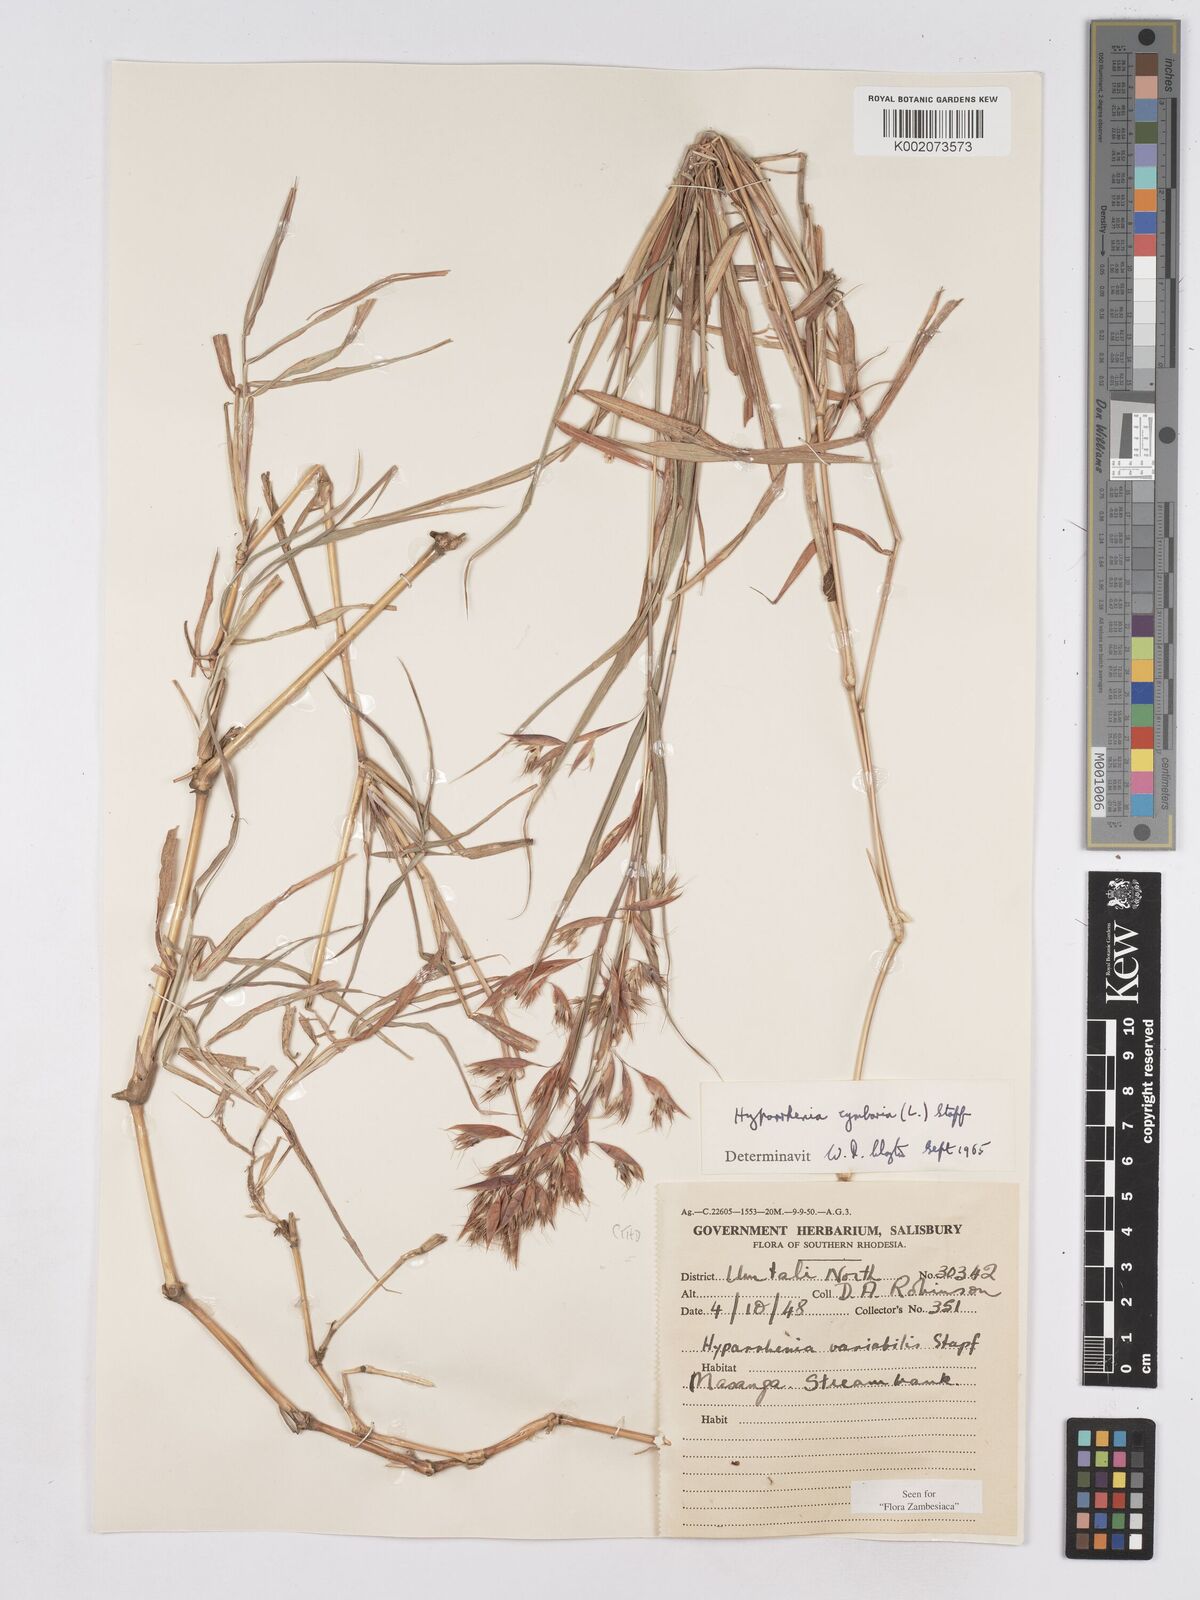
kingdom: Plantae
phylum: Tracheophyta
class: Liliopsida
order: Poales
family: Poaceae
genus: Hyparrhenia
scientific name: Hyparrhenia cymbaria
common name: Boat thatching grass
